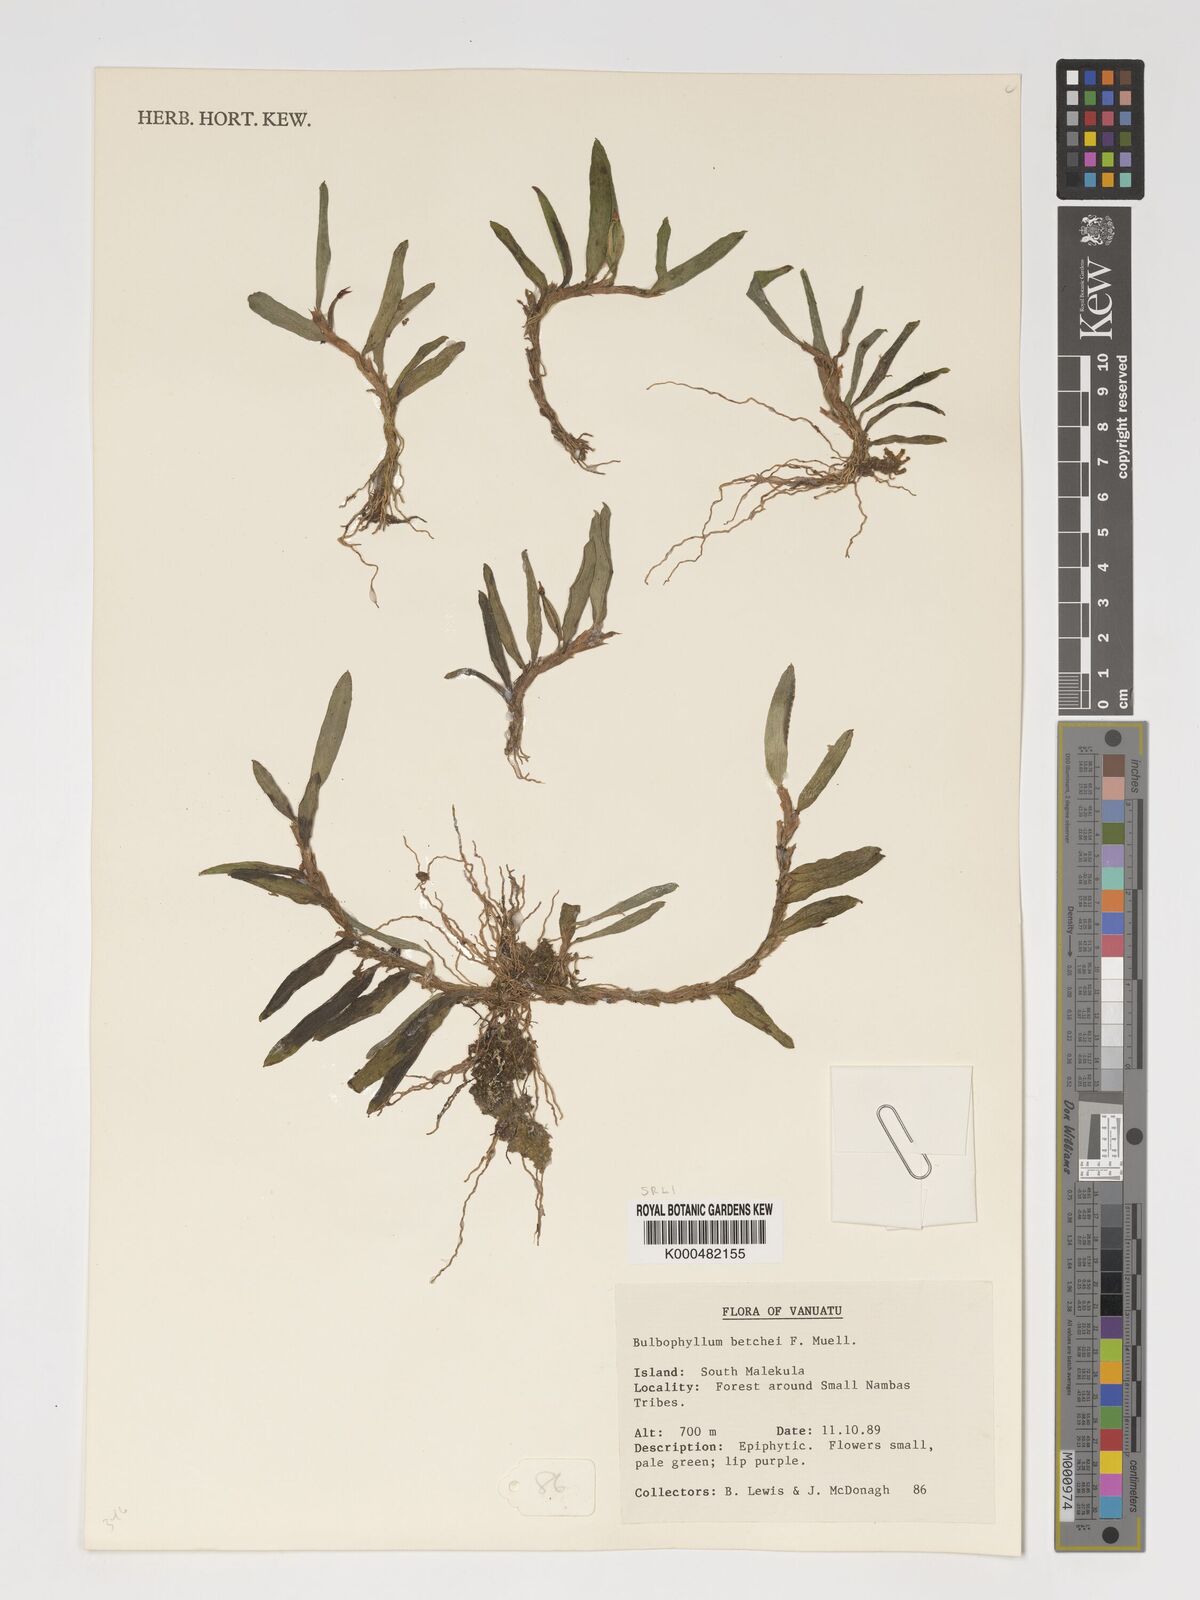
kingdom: Plantae
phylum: Tracheophyta
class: Liliopsida
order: Asparagales
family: Orchidaceae
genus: Bulbophyllum
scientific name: Bulbophyllum betchei
